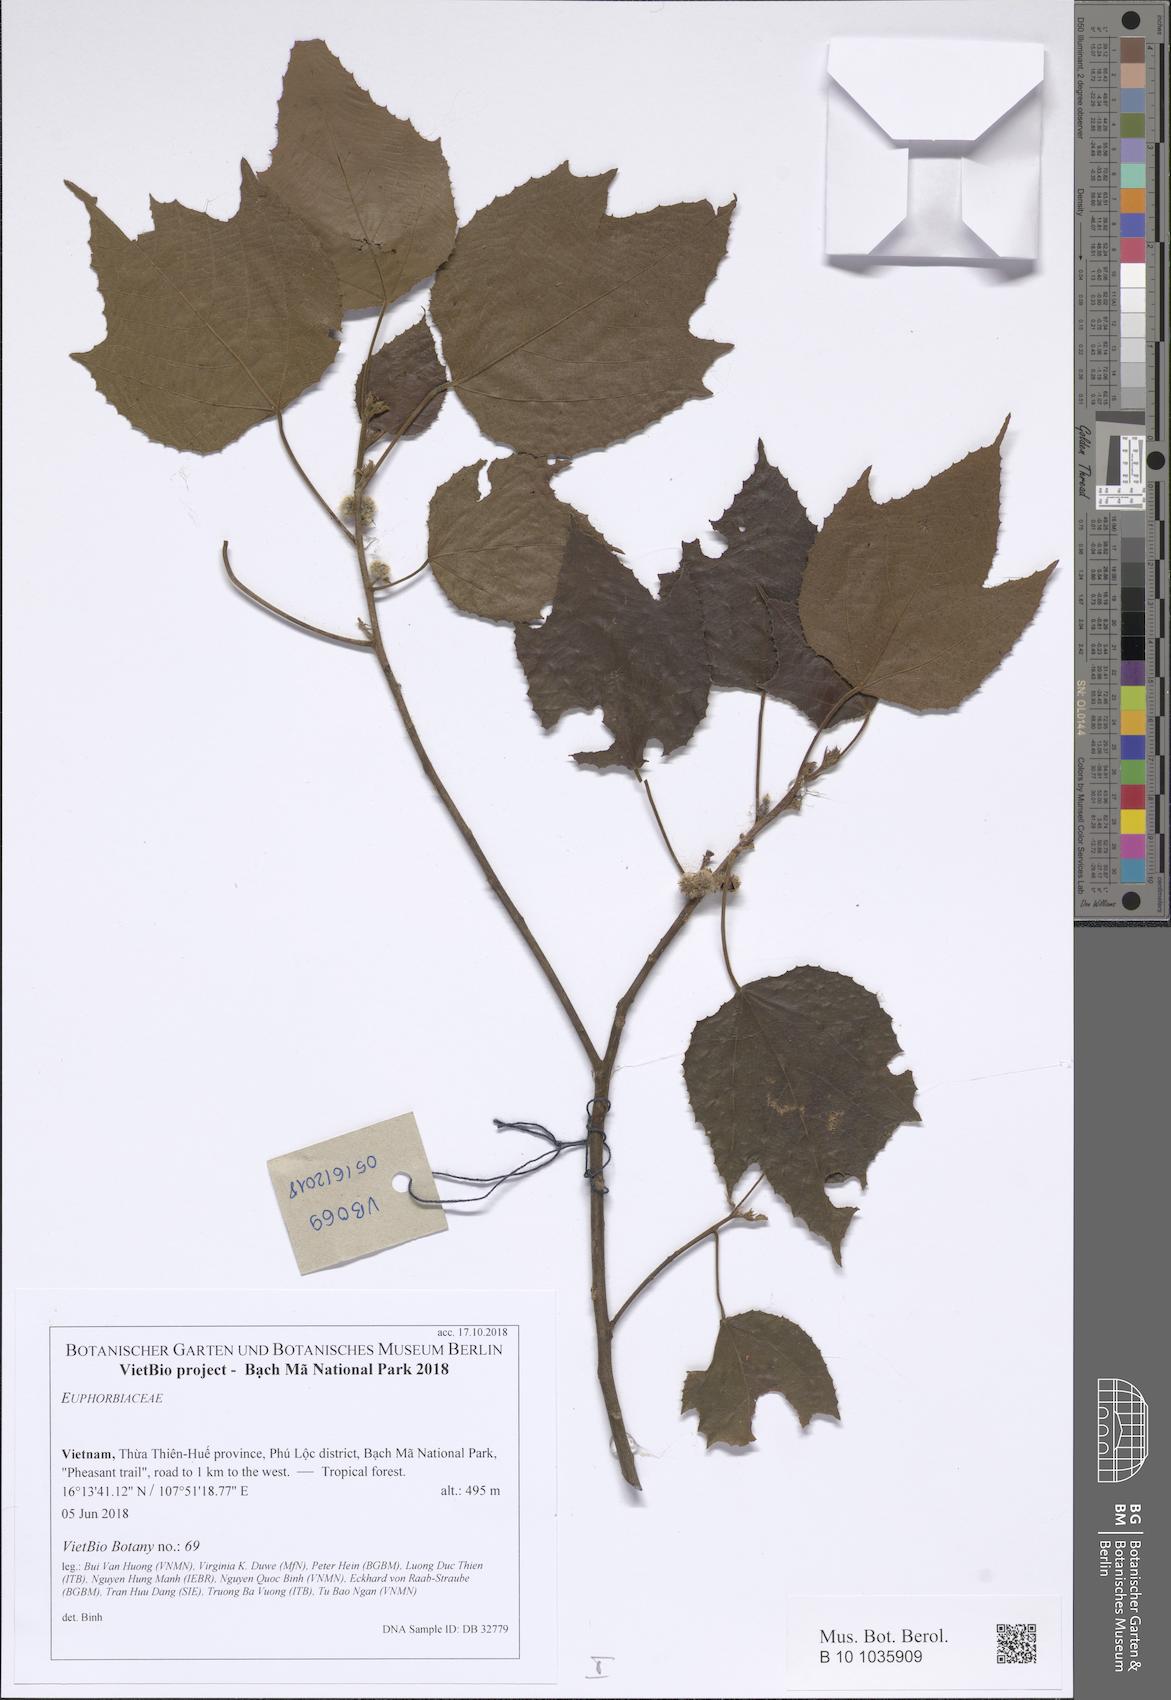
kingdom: Plantae
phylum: Tracheophyta
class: Magnoliopsida
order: Malpighiales
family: Euphorbiaceae
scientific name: Euphorbiaceae
